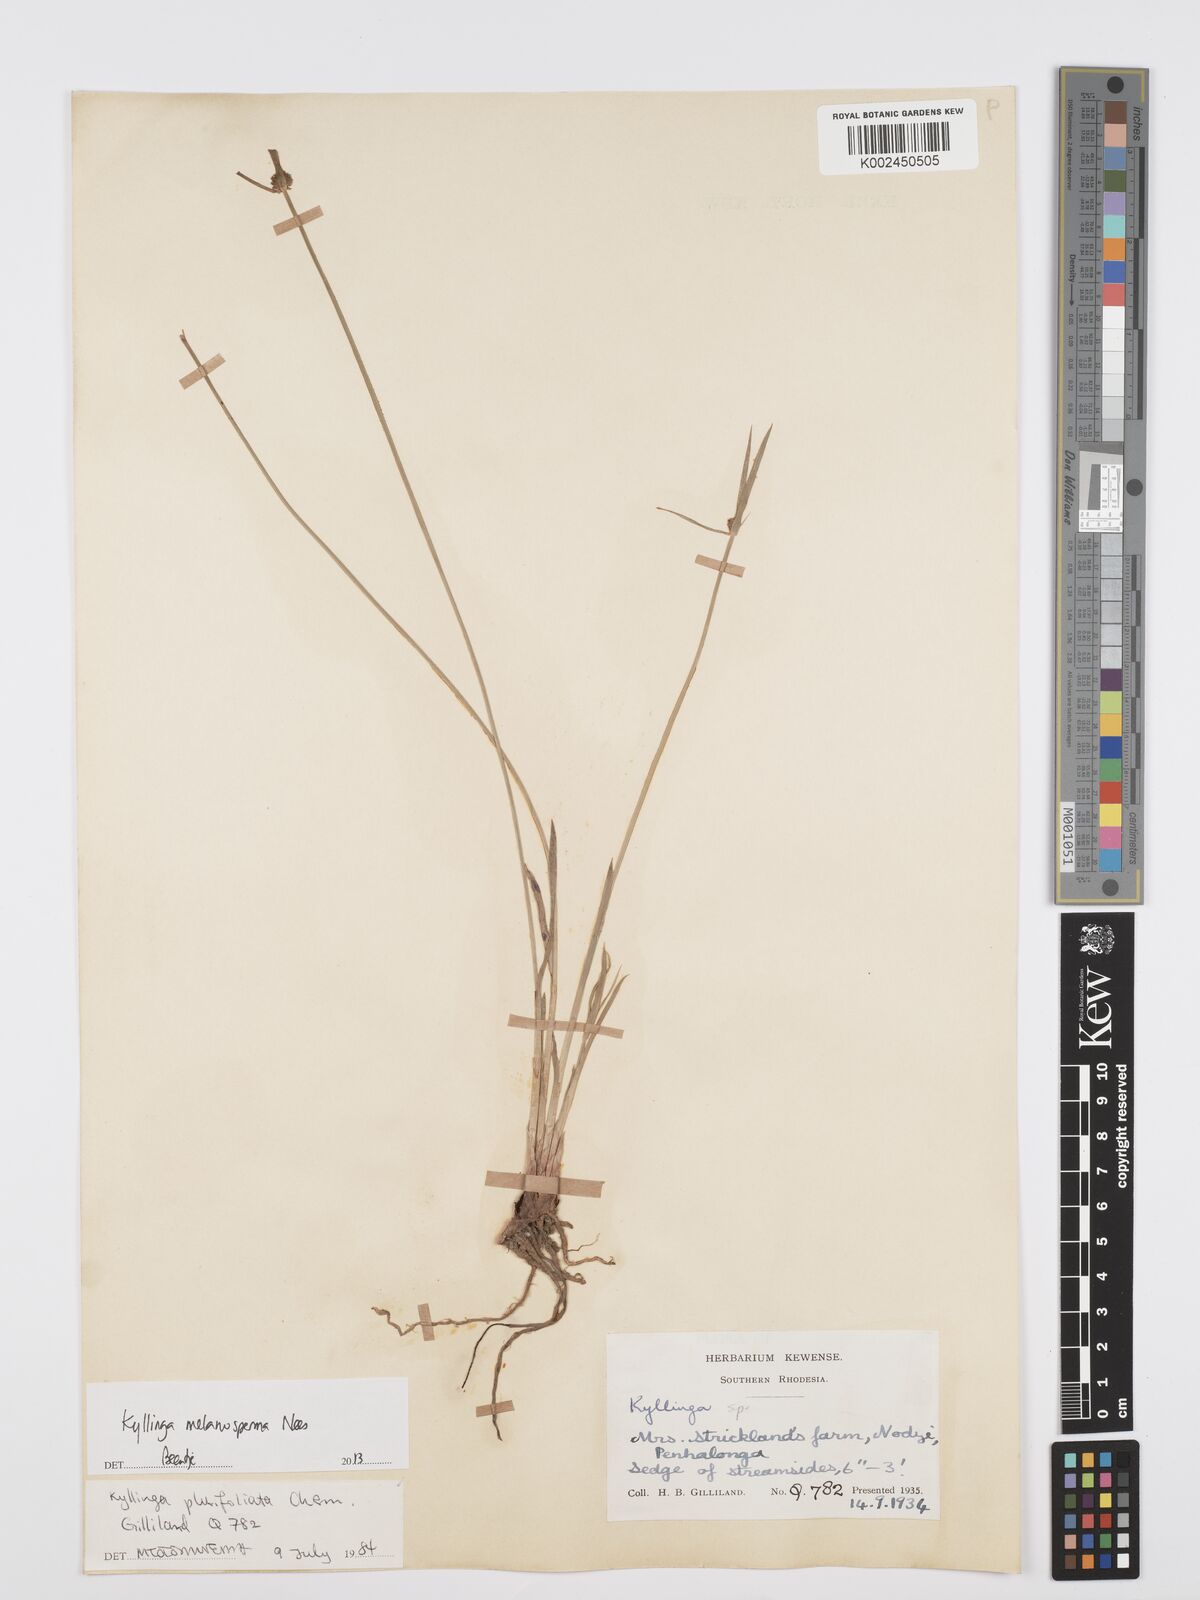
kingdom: Plantae
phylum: Tracheophyta
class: Liliopsida
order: Poales
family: Cyperaceae
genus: Cyperus
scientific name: Cyperus melanospermus
